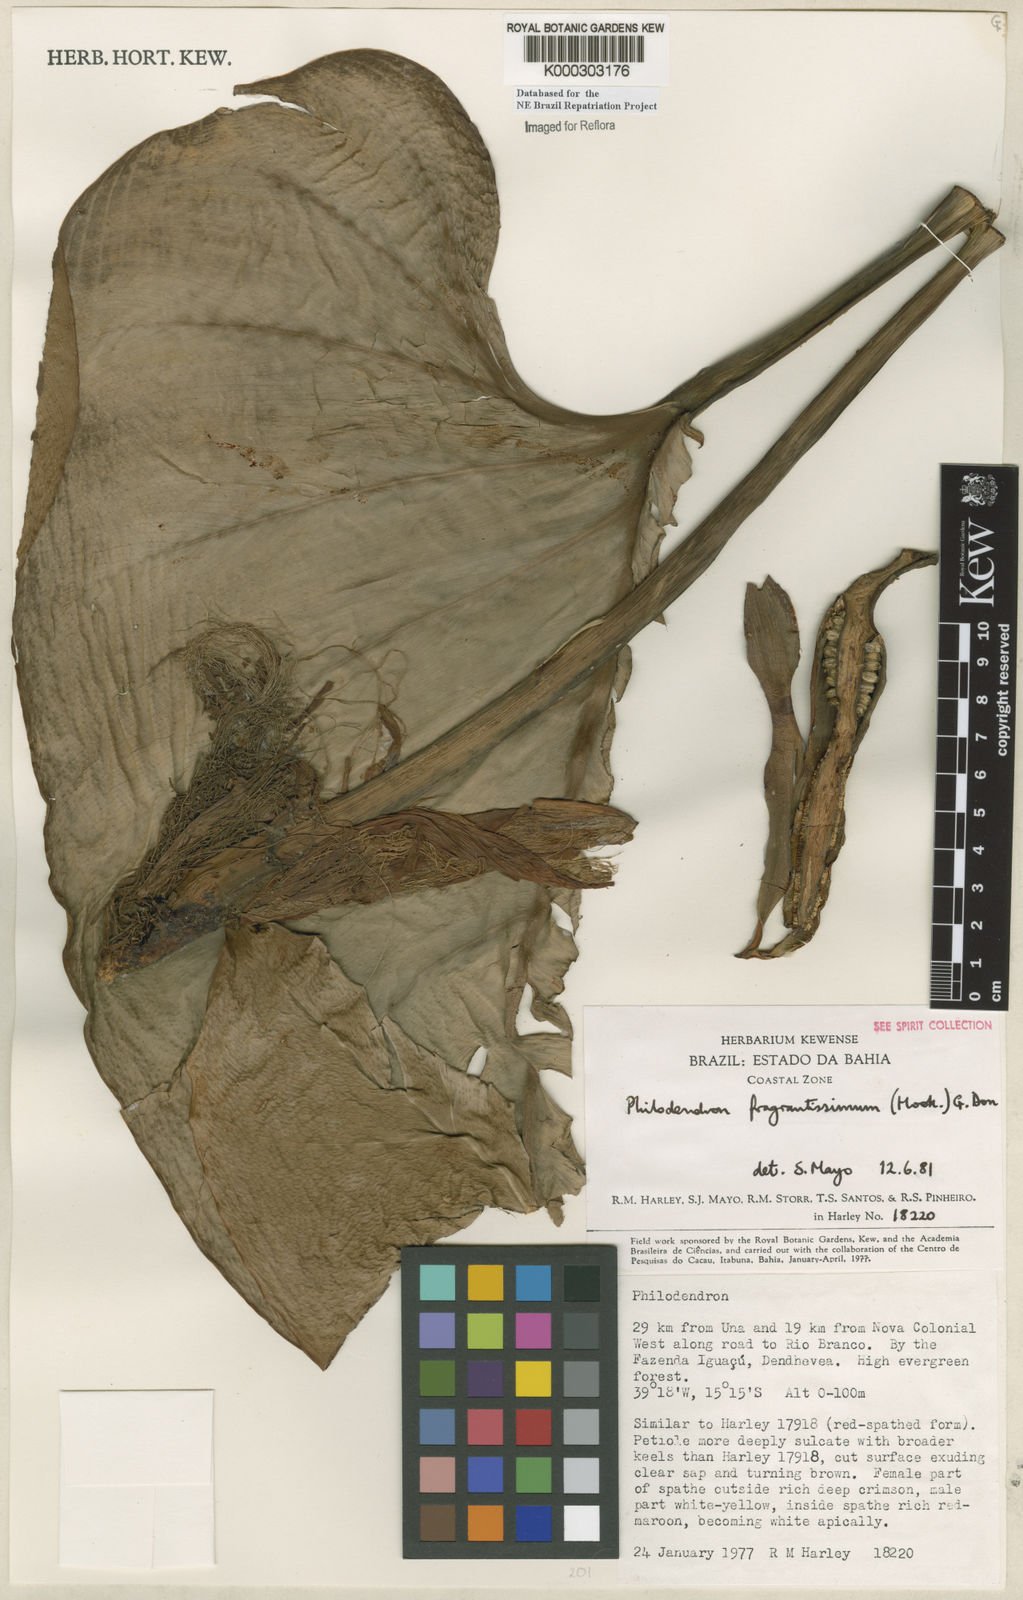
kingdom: Plantae
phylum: Tracheophyta
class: Liliopsida
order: Alismatales
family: Araceae
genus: Philodendron
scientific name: Philodendron fragrantissimum
